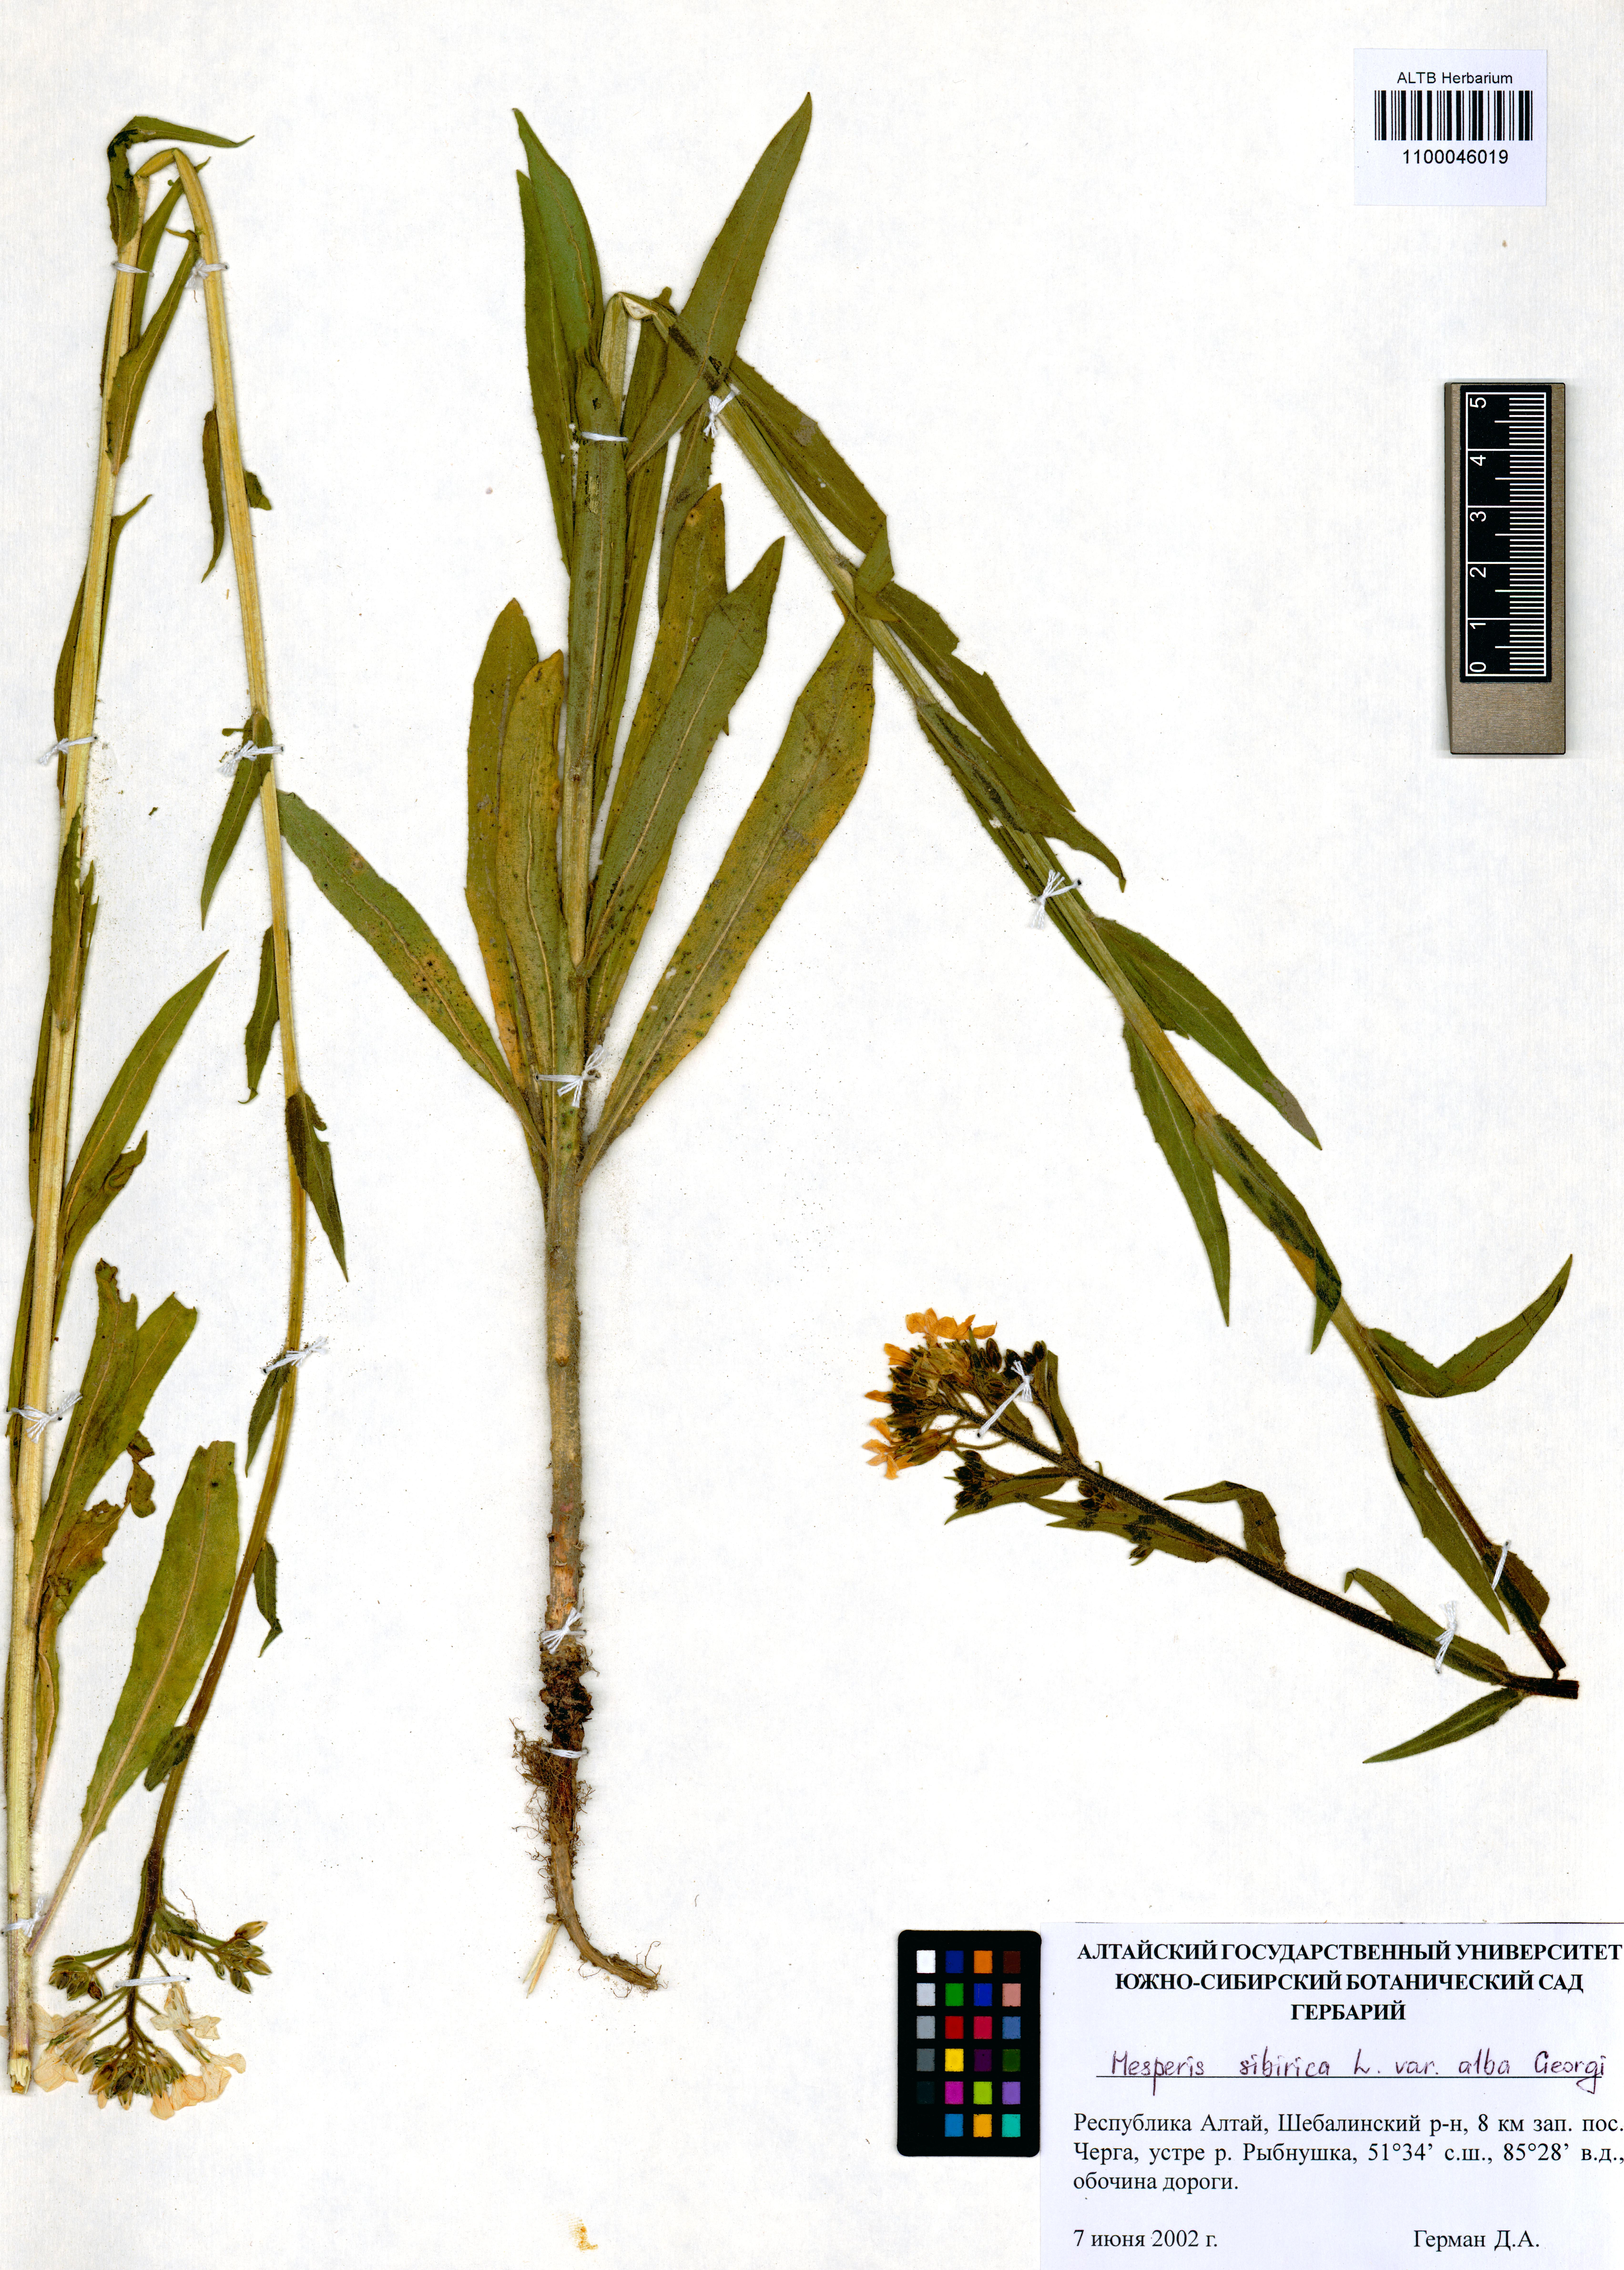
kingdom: Plantae
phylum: Tracheophyta
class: Magnoliopsida
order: Brassicales
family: Brassicaceae
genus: Hesperis
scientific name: Hesperis sibirica
